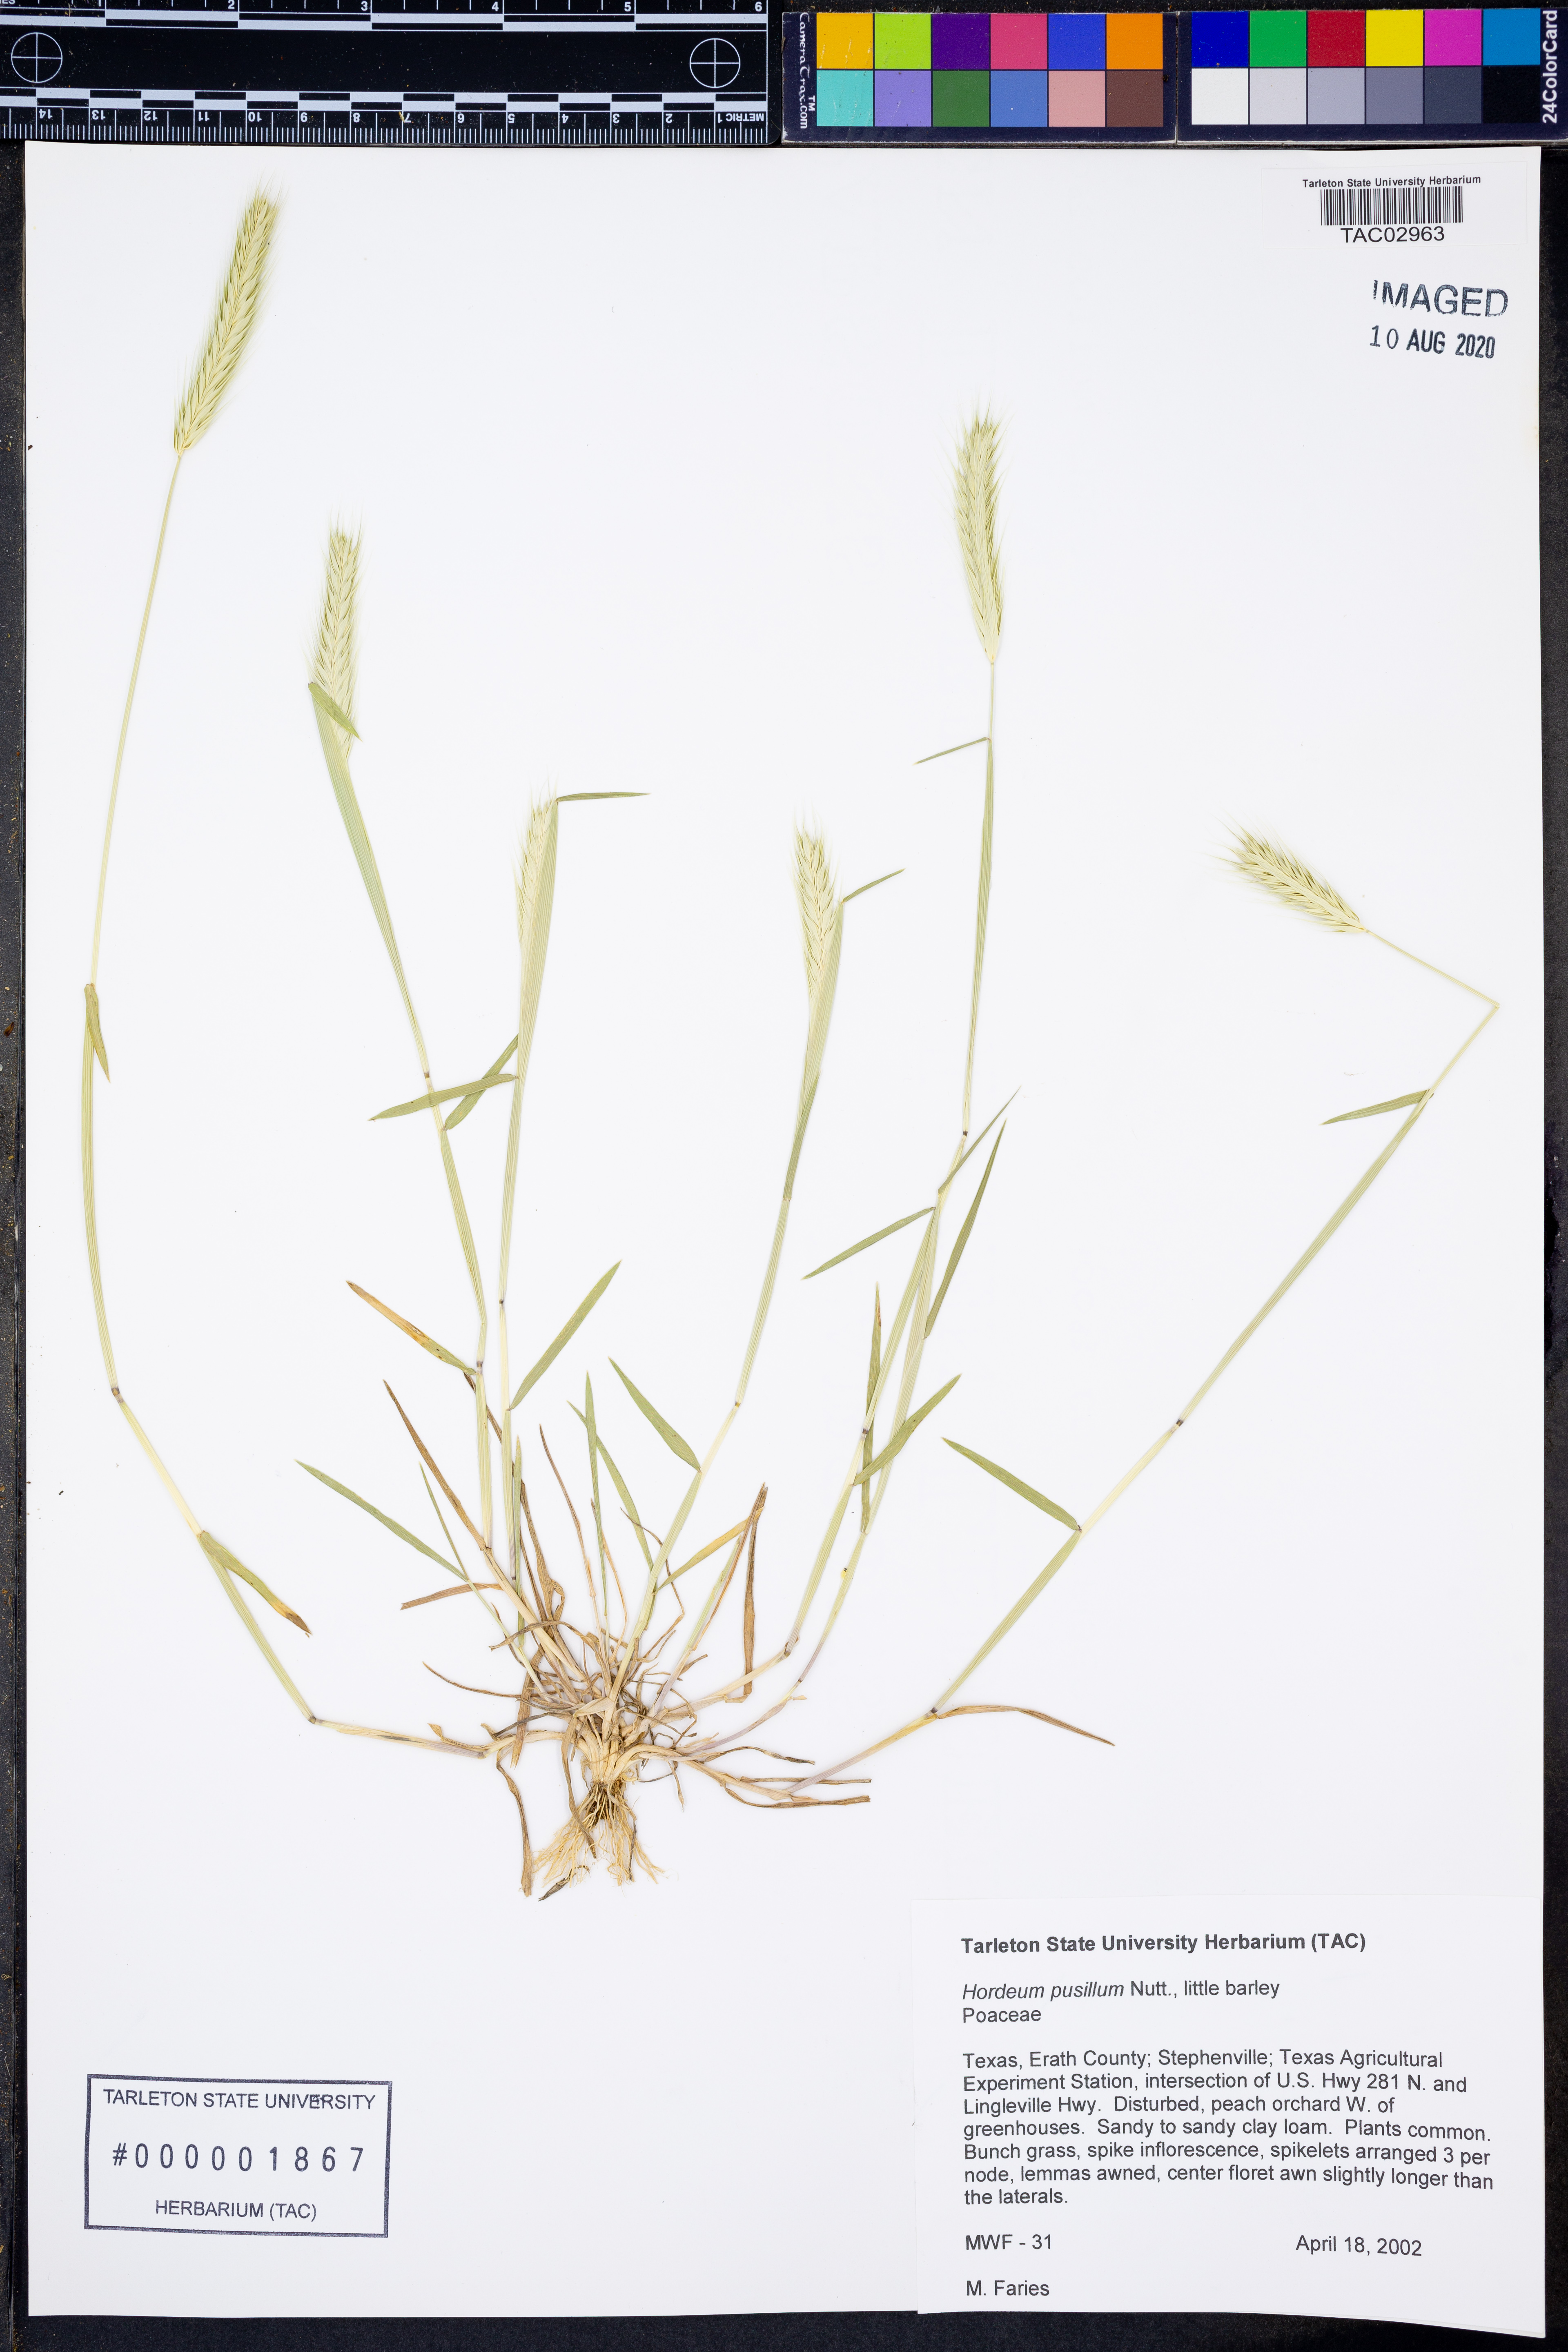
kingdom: Plantae
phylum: Tracheophyta
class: Liliopsida
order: Poales
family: Poaceae
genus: Hordeum
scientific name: Hordeum pusillum
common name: Little barley
